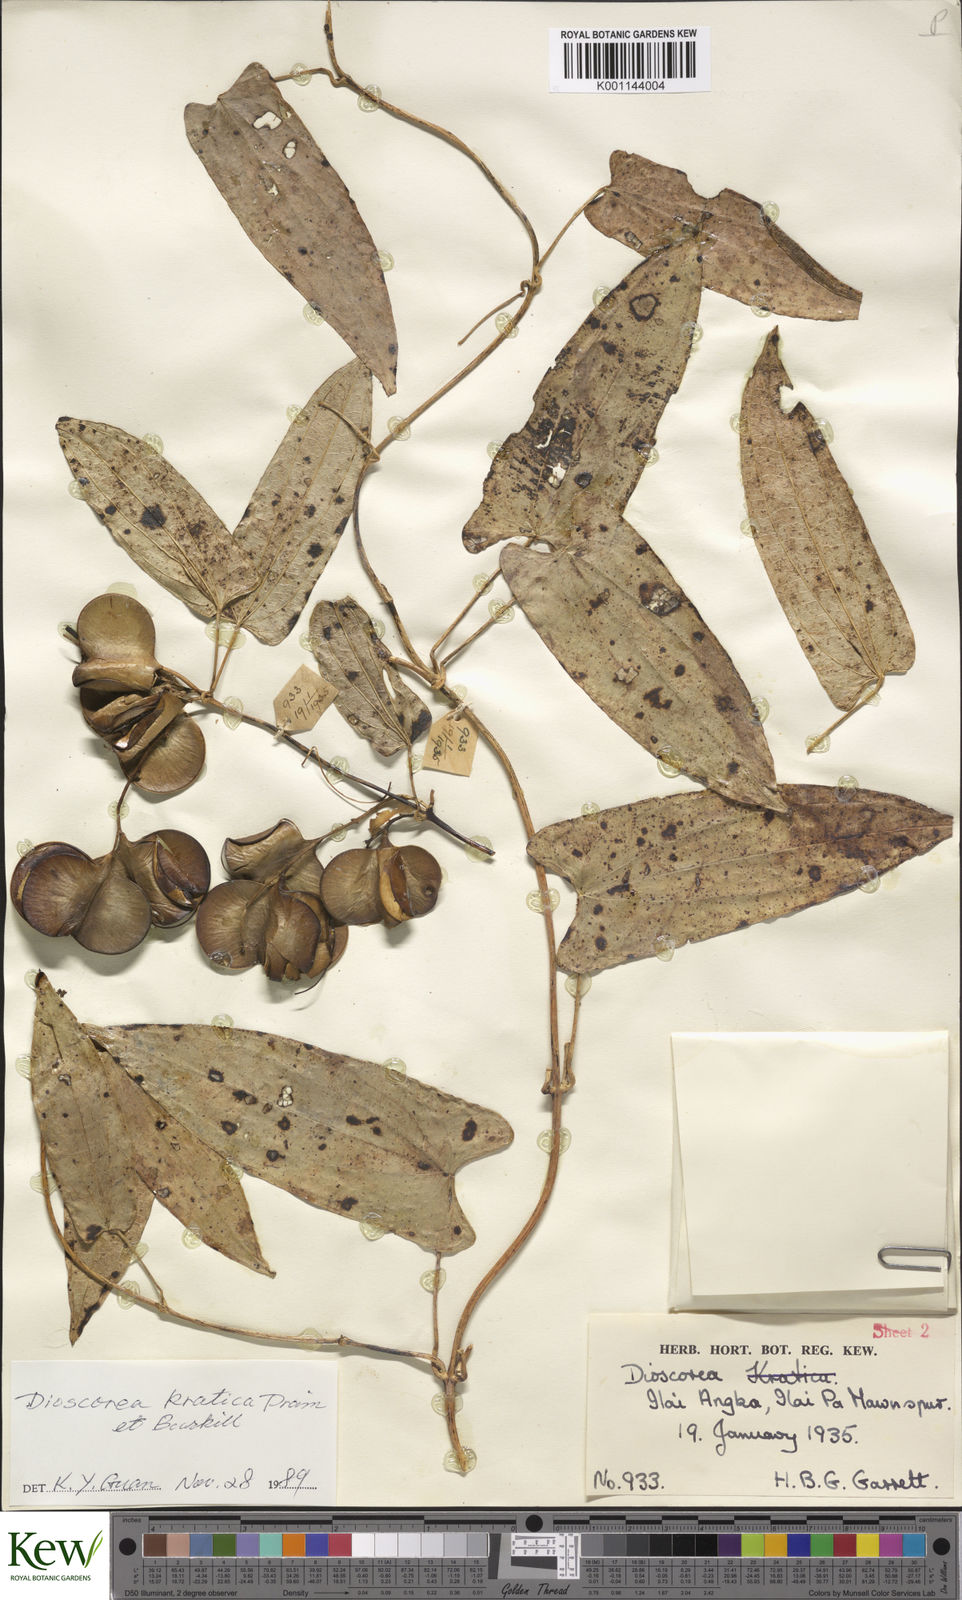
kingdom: Plantae
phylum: Tracheophyta
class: Liliopsida
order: Dioscoreales
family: Dioscoreaceae
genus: Dioscorea
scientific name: Dioscorea kratica
